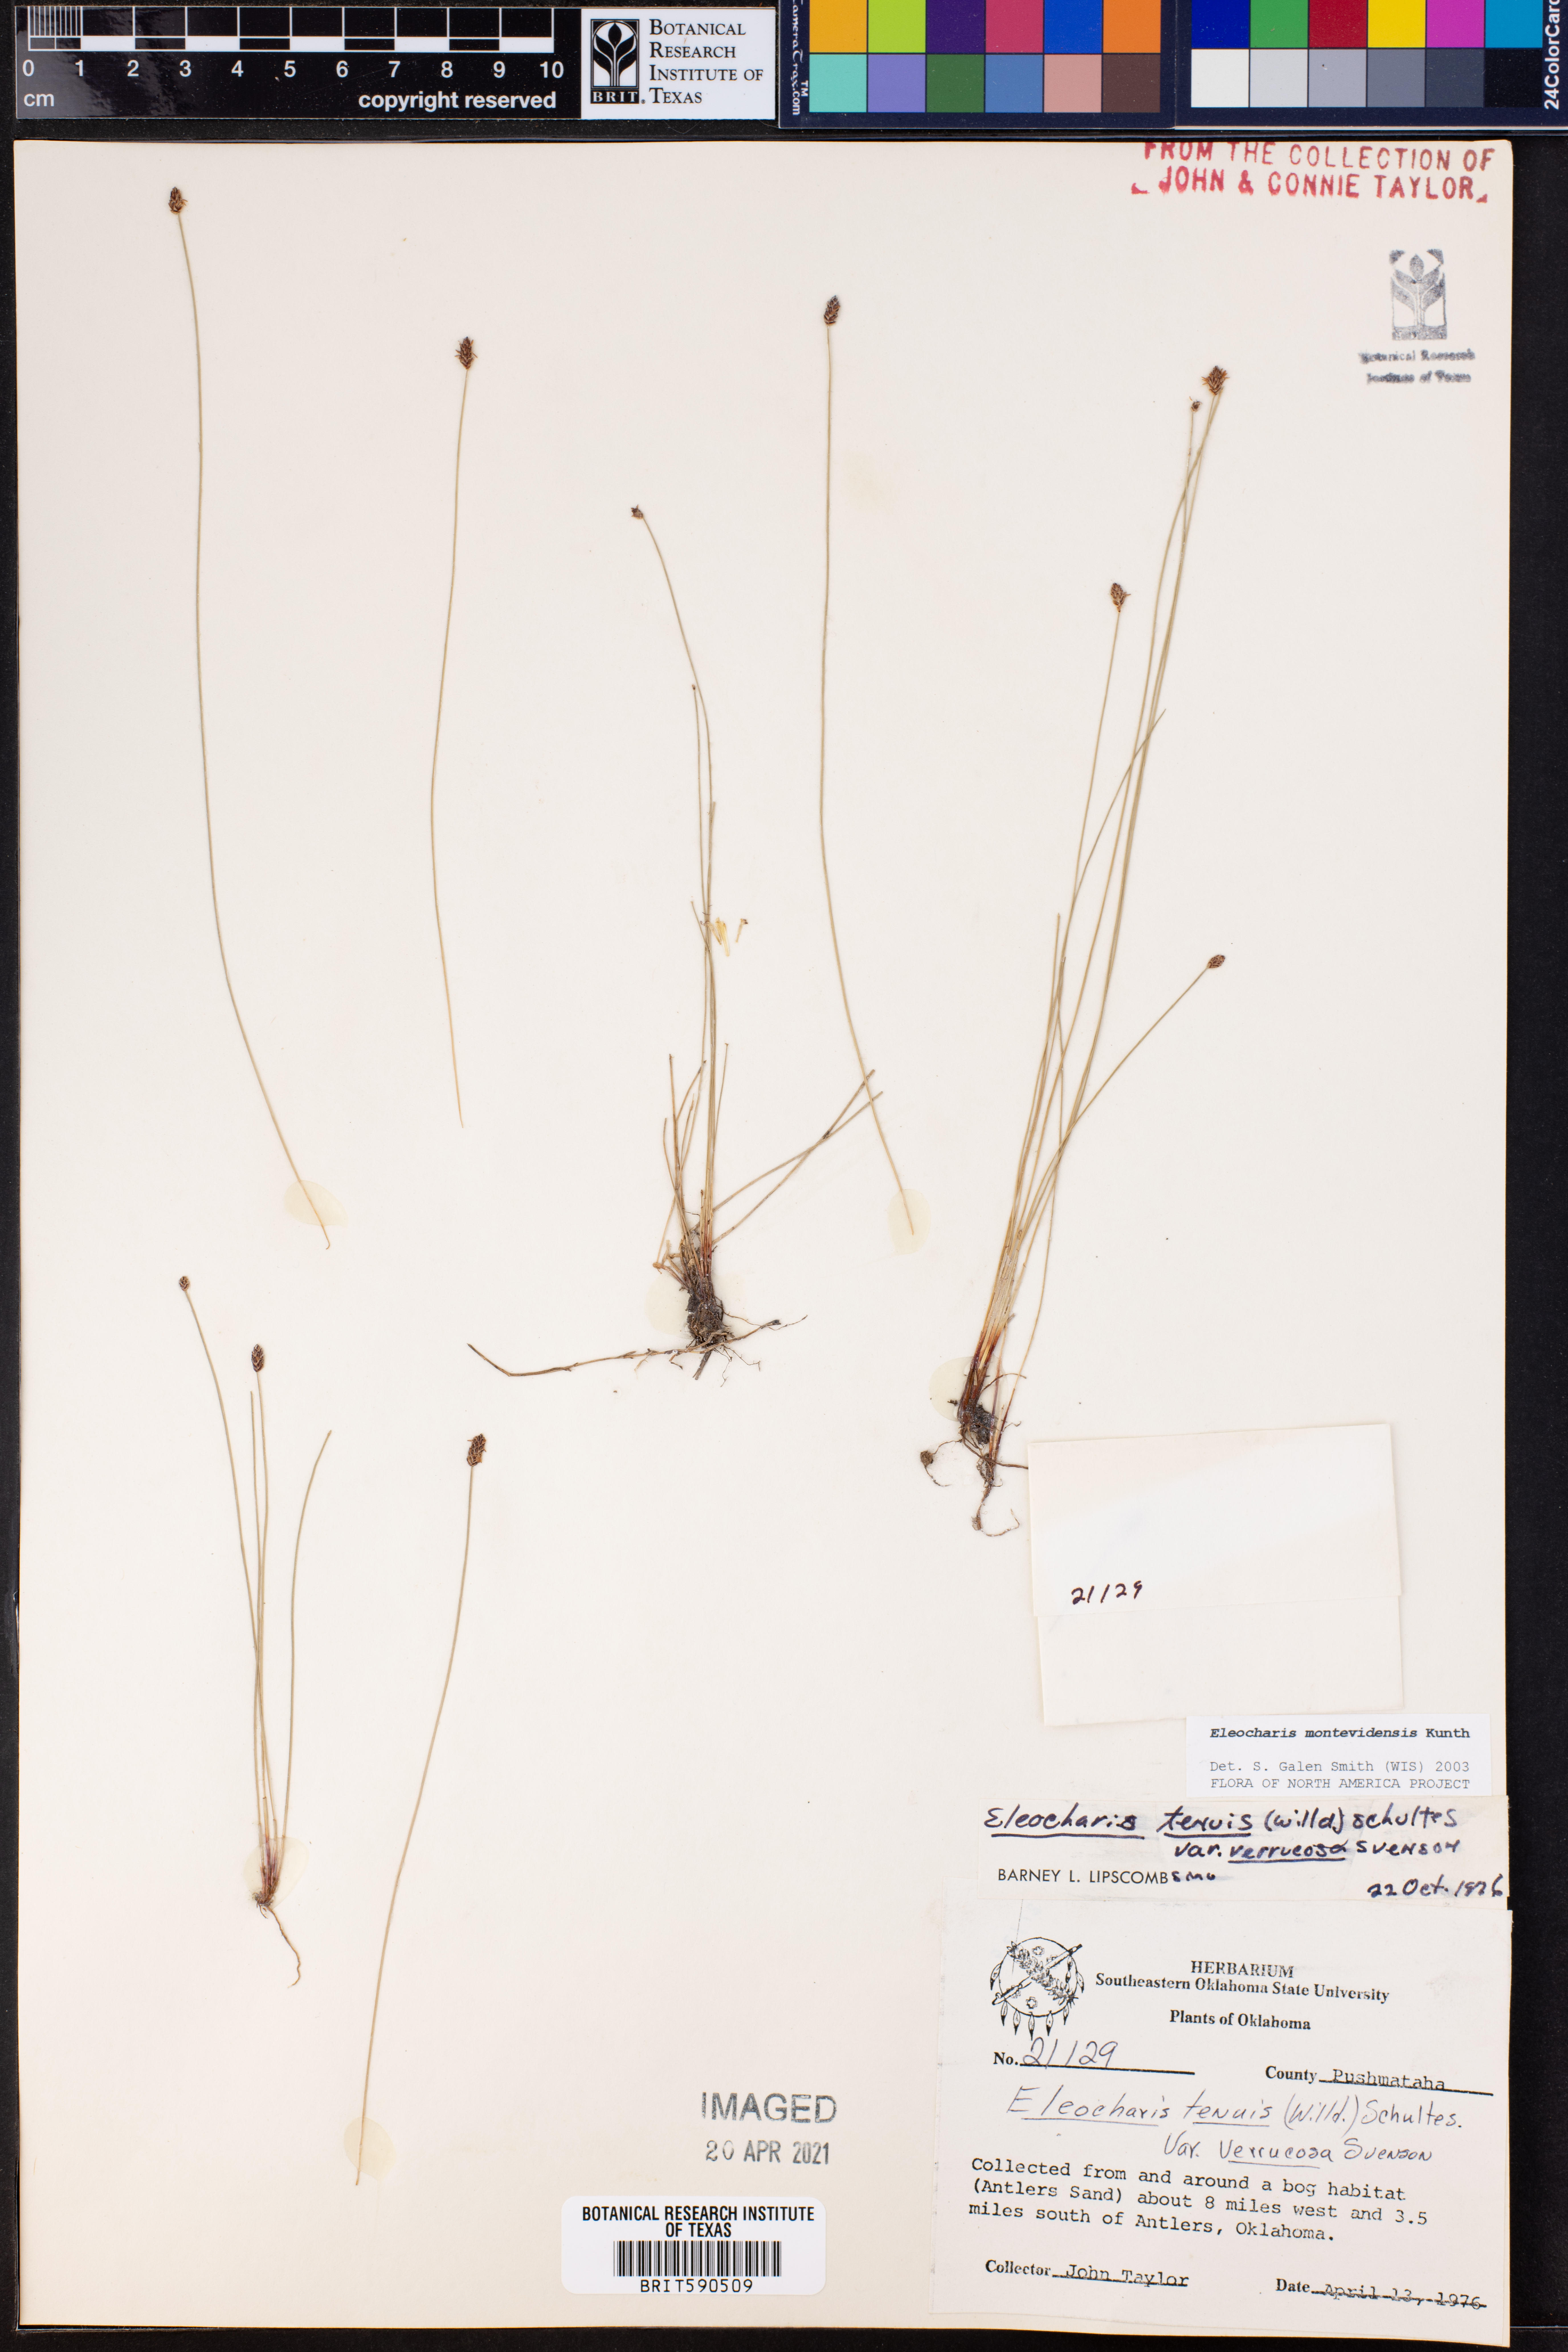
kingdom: Plantae
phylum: Tracheophyta
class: Liliopsida
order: Poales
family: Cyperaceae
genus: Eleocharis
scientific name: Eleocharis montevidensis
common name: Sand spike-rush
